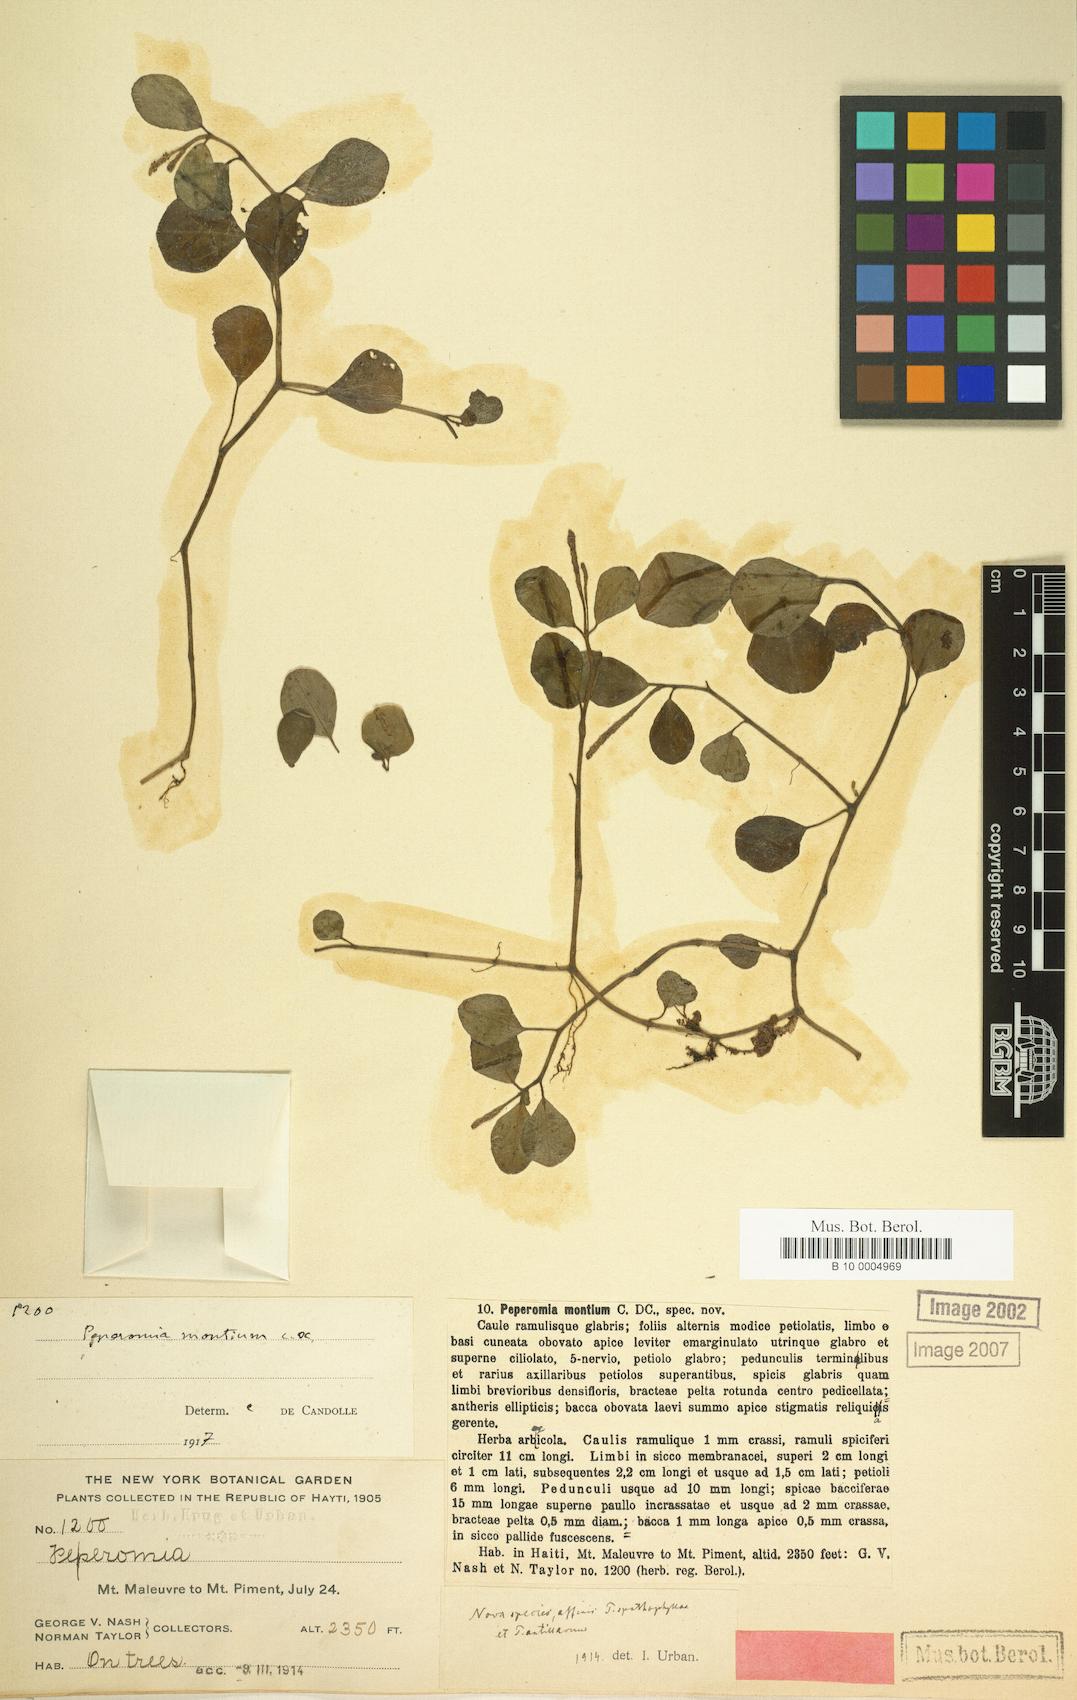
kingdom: Plantae
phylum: Tracheophyta
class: Magnoliopsida
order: Piperales
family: Piperaceae
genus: Peperomia
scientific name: Peperomia silvivaga
